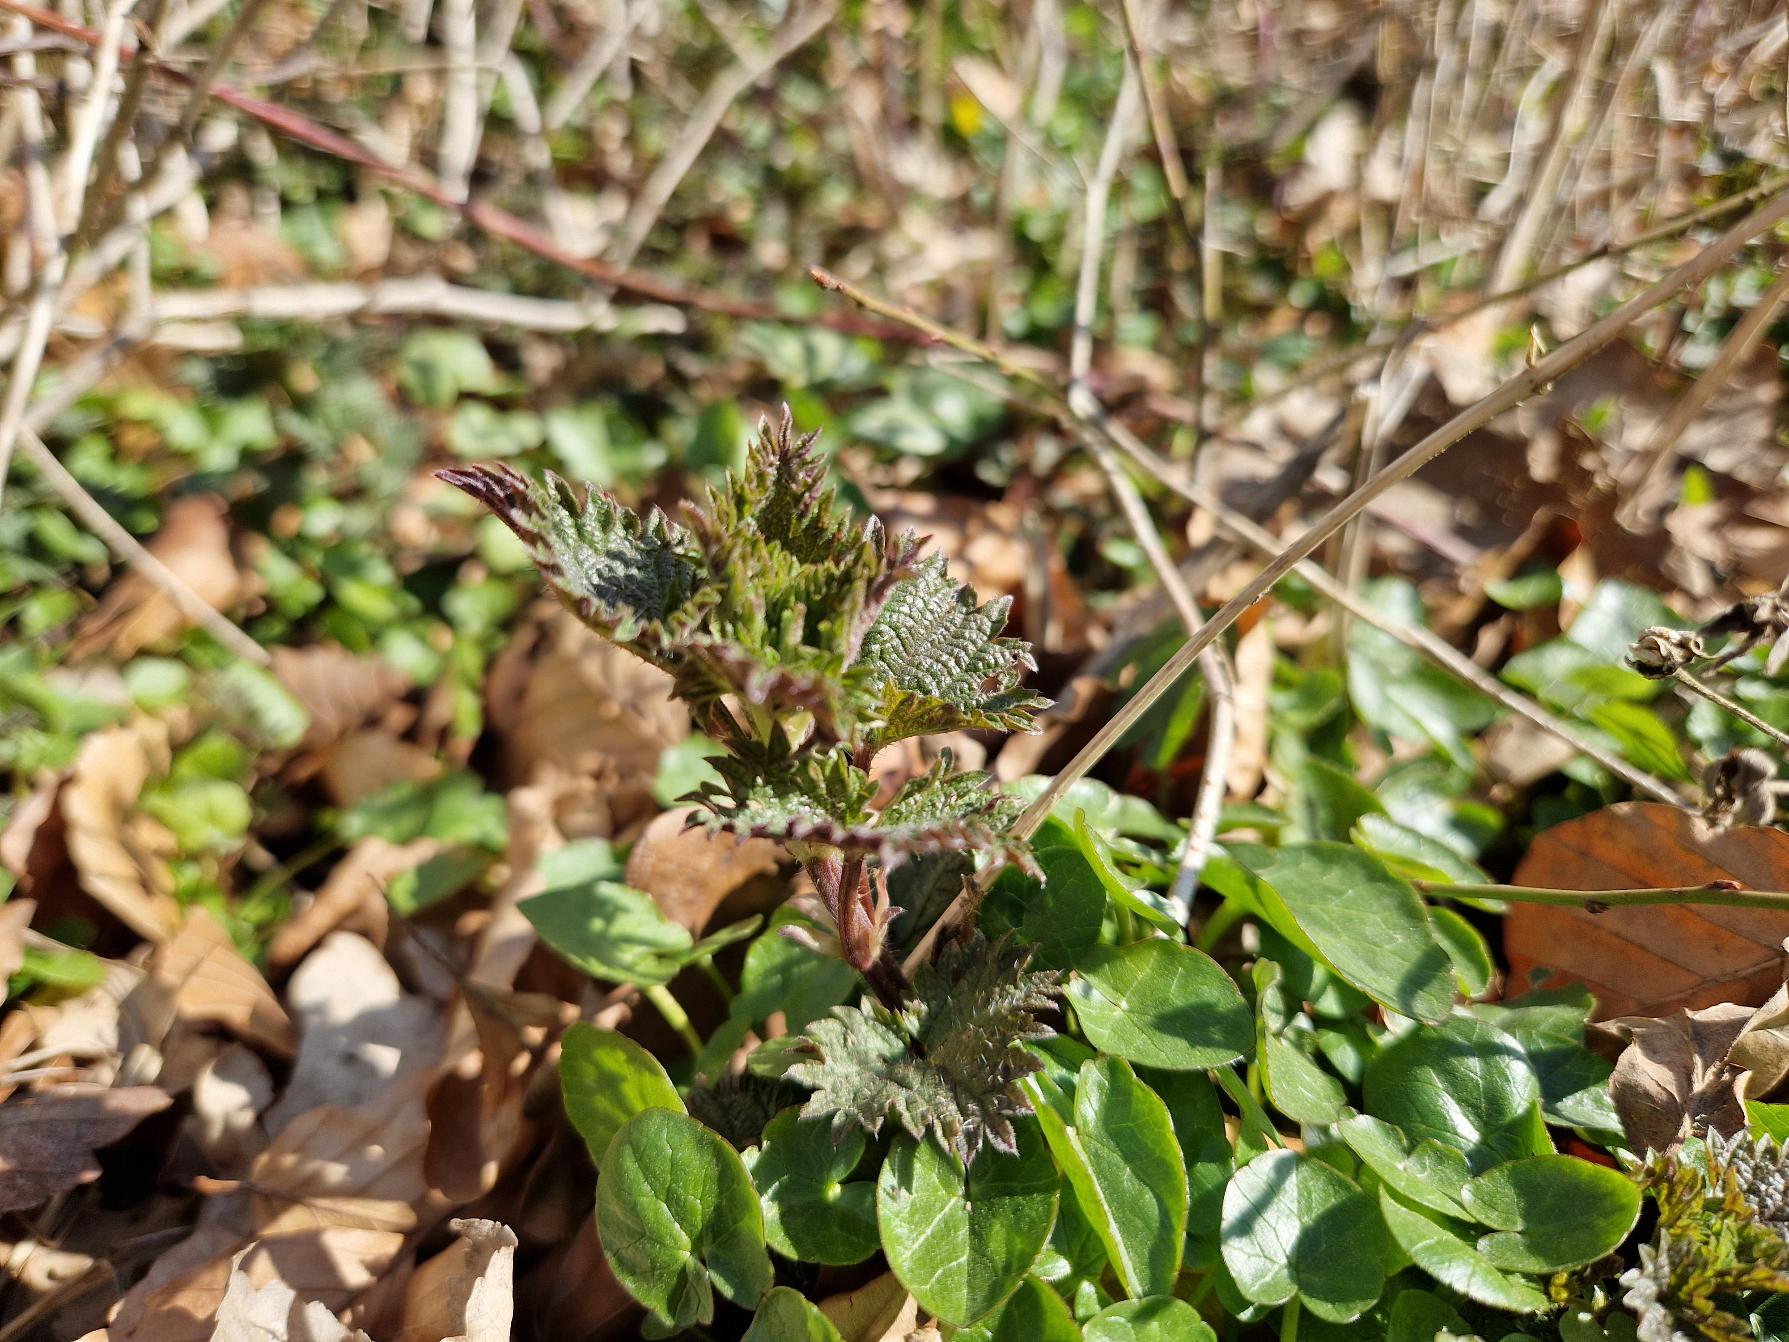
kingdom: Plantae
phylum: Tracheophyta
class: Magnoliopsida
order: Rosales
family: Urticaceae
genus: Urtica
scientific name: Urtica dioica
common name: Stor nælde
